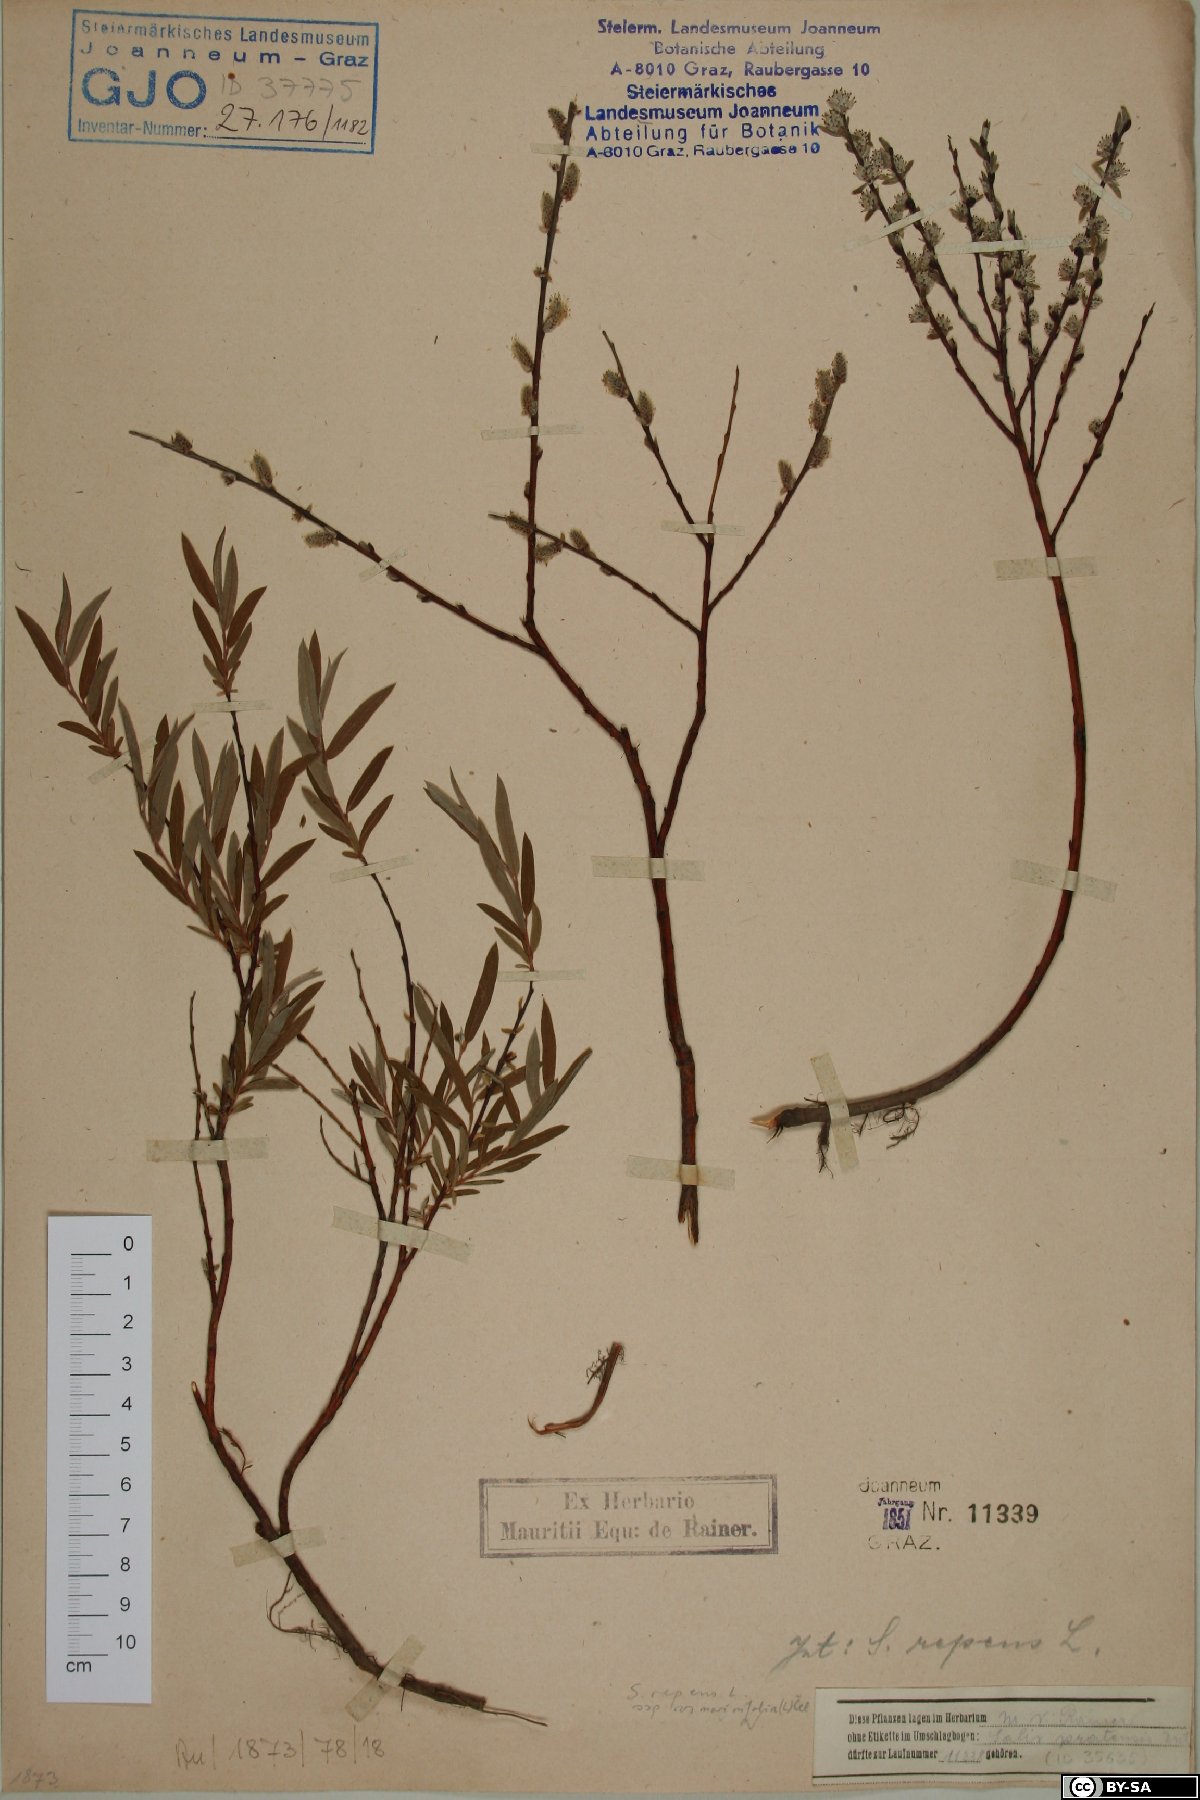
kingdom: Plantae
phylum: Tracheophyta
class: Magnoliopsida
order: Malpighiales
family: Salicaceae
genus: Salix
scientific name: Salix repens
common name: Creeping willow
